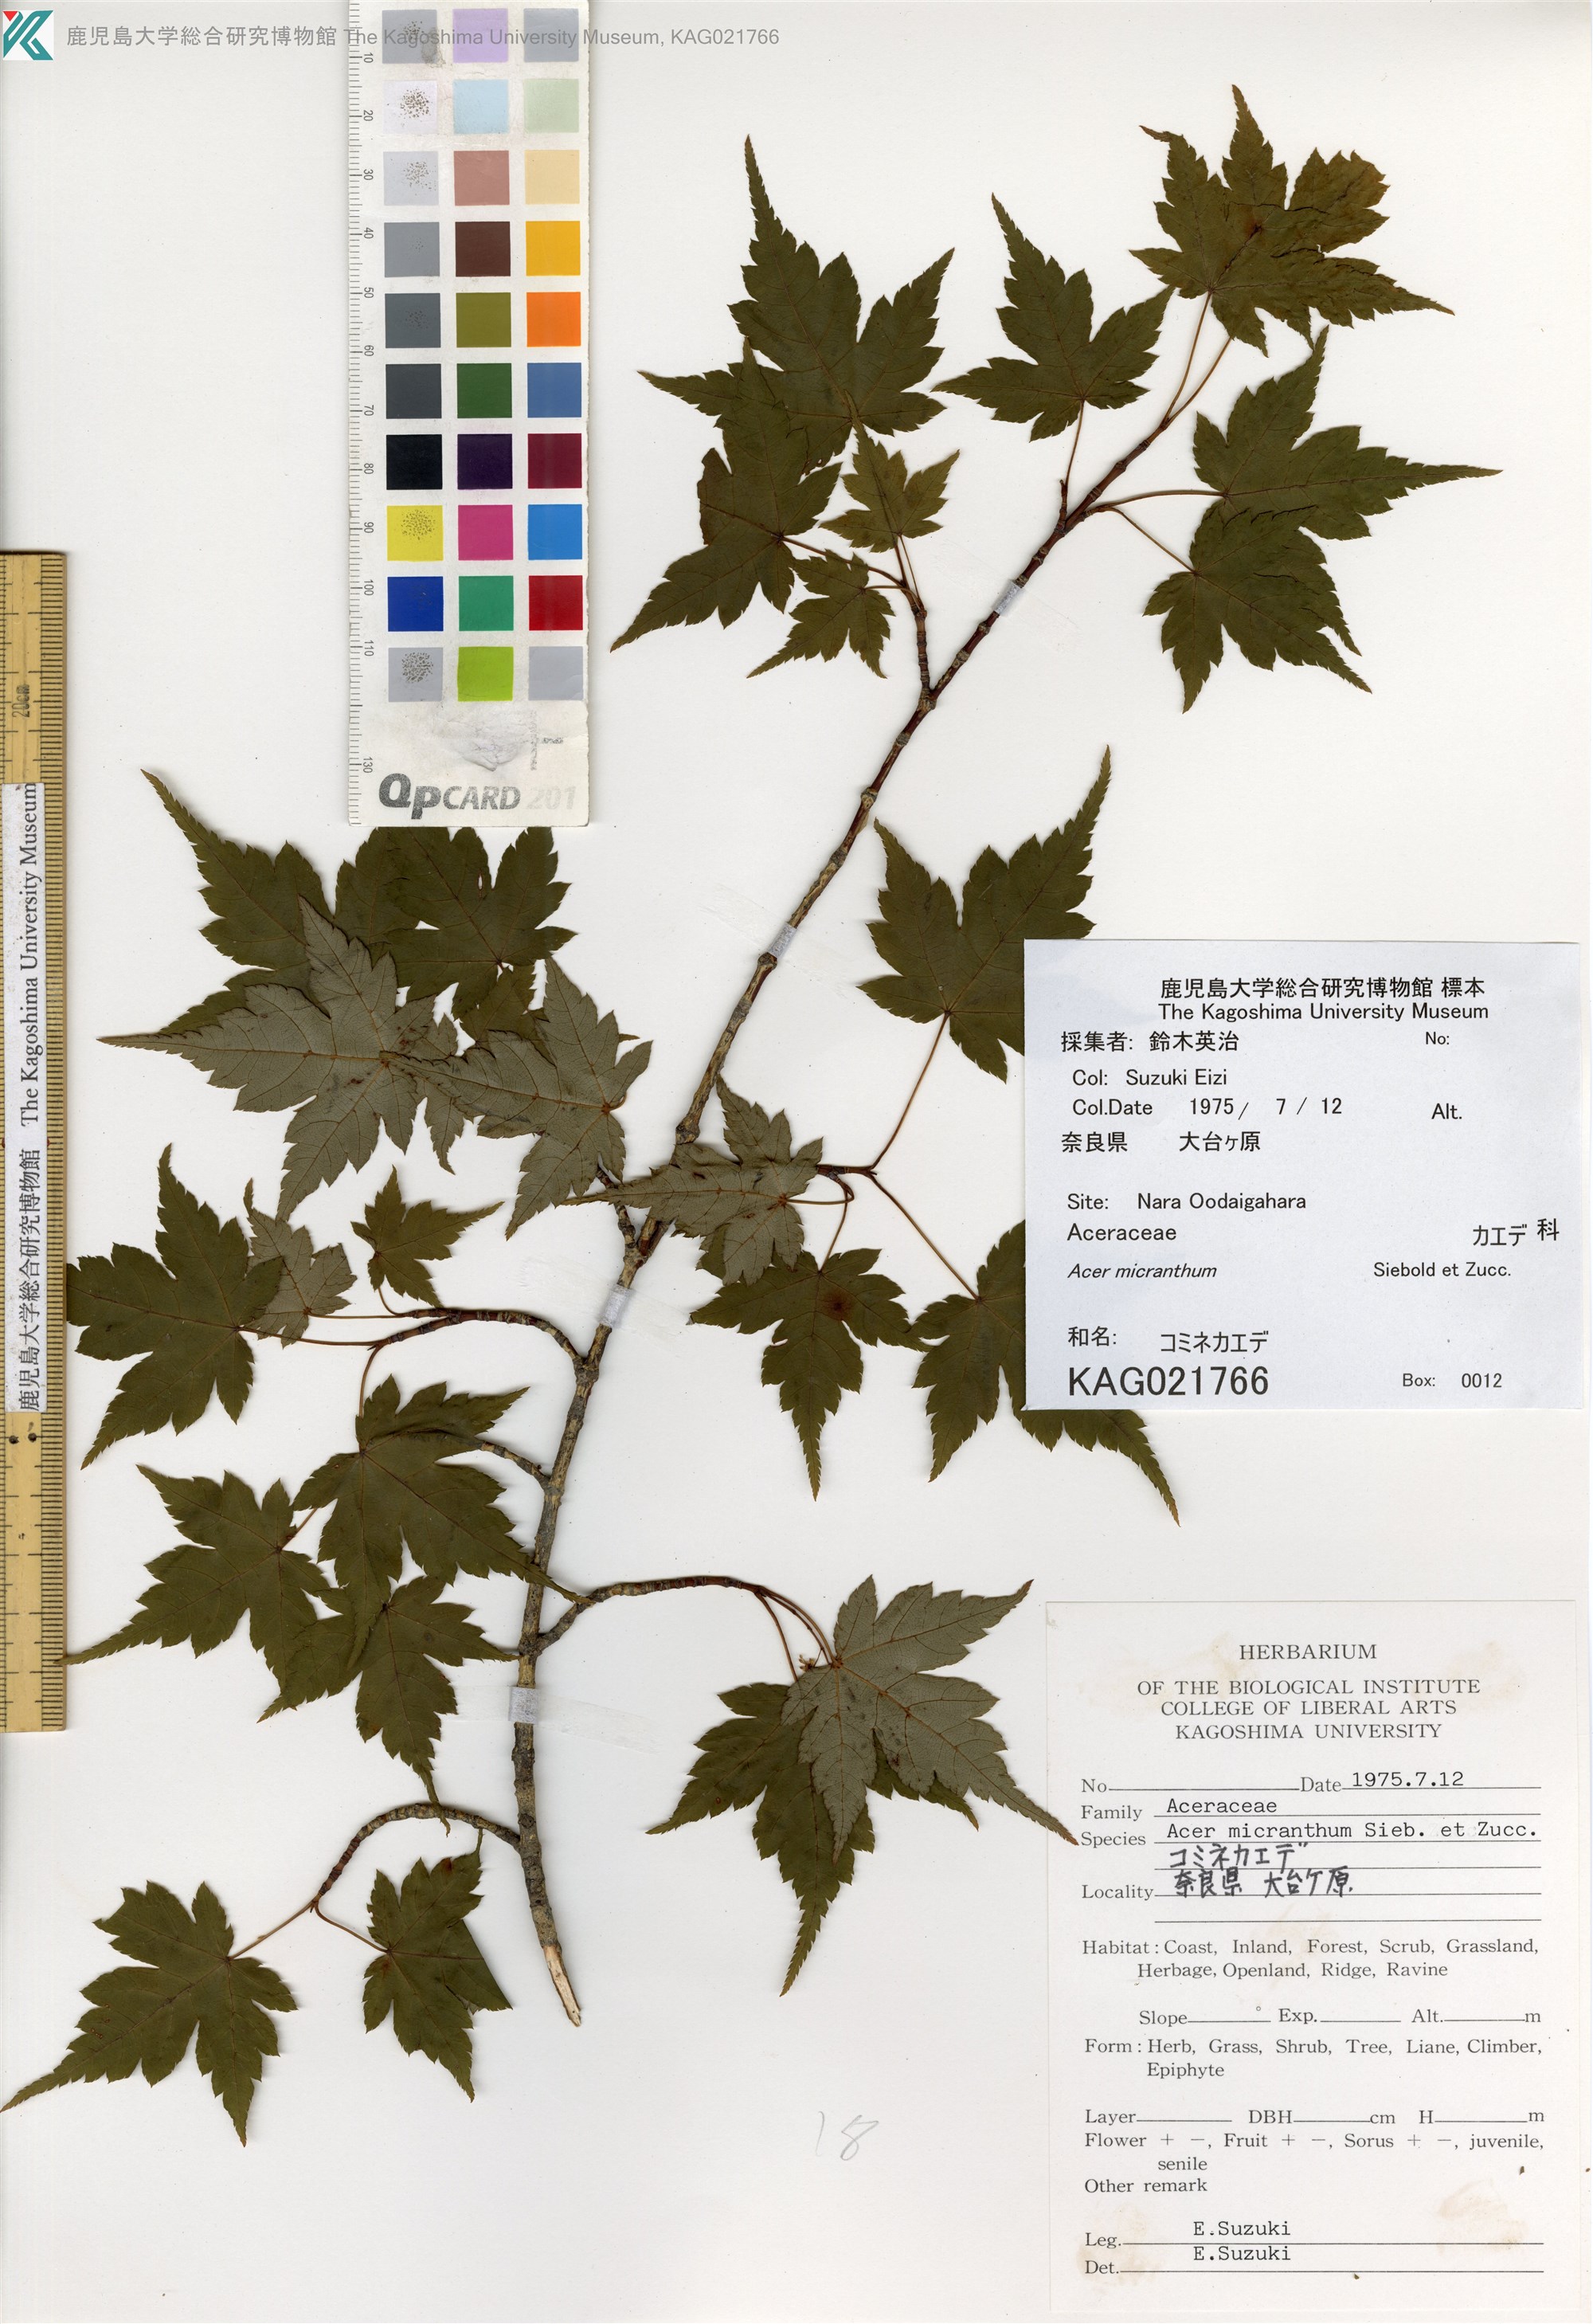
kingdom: Plantae
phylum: Tracheophyta
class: Magnoliopsida
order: Sapindales
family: Sapindaceae
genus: Acer
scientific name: Acer micranthum
